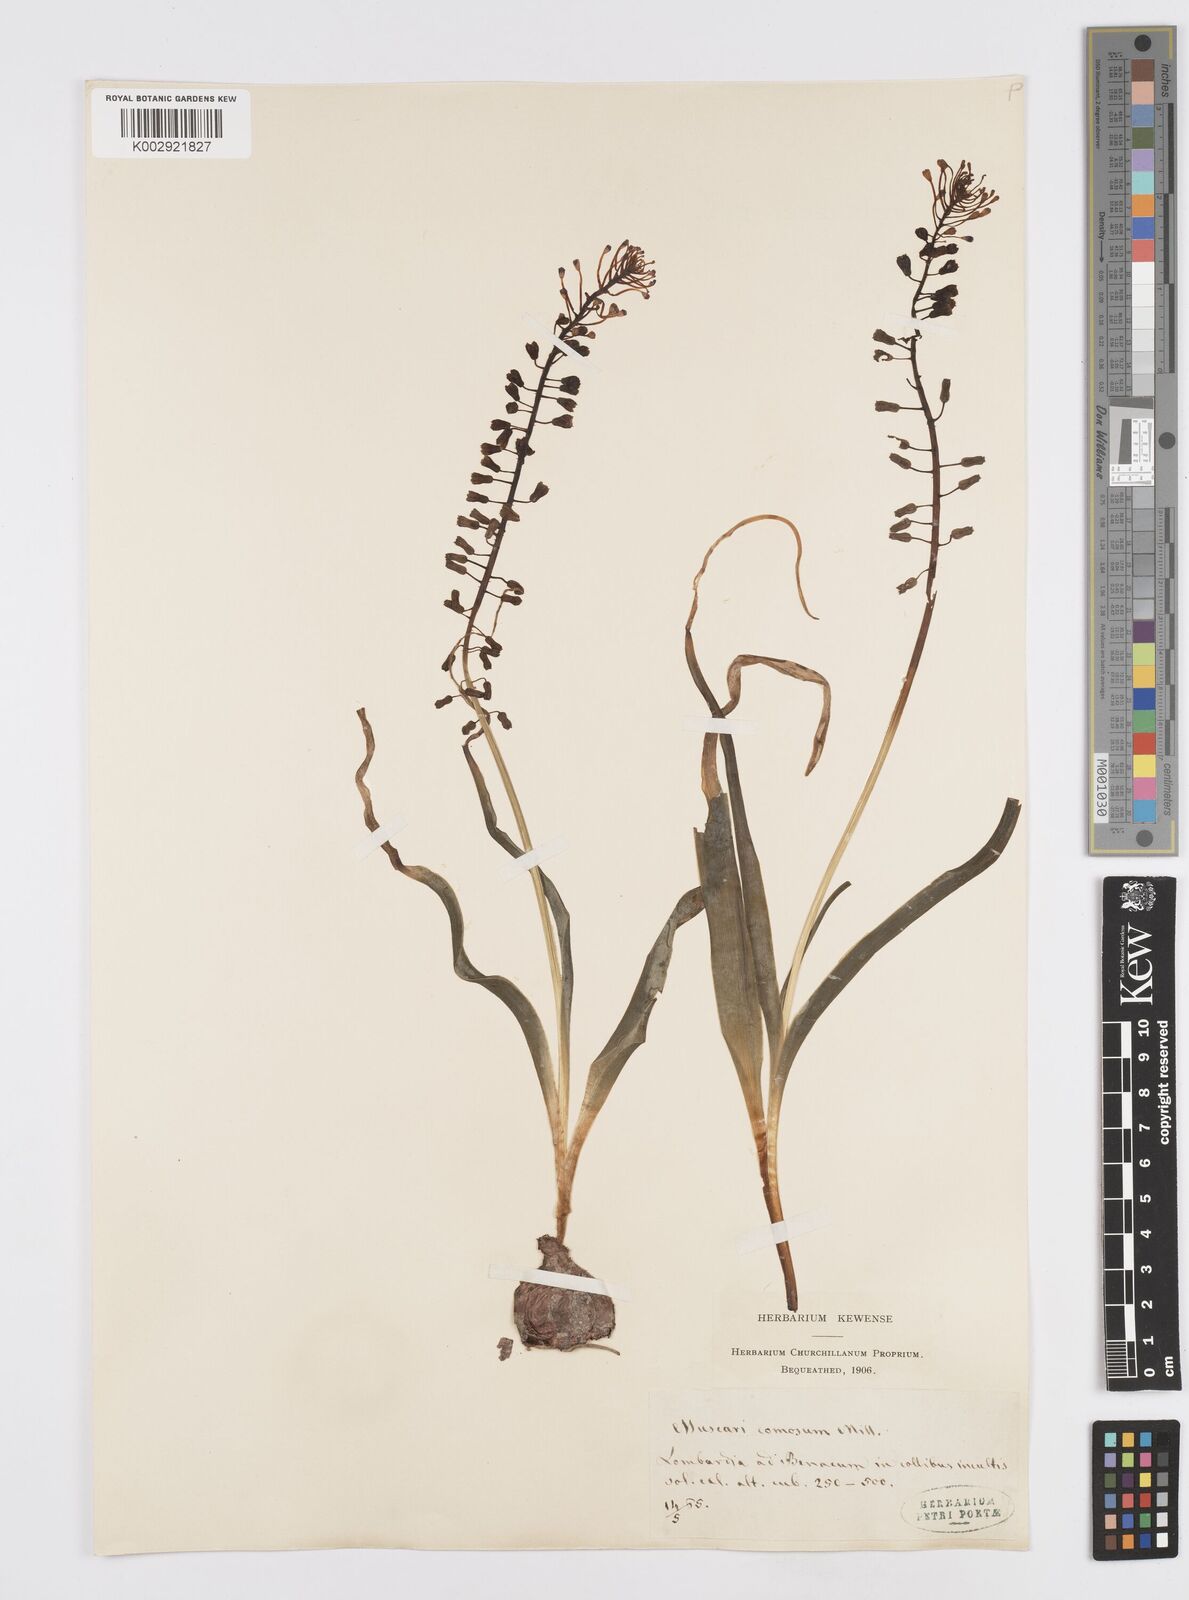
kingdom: Plantae
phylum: Tracheophyta
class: Liliopsida
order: Asparagales
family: Asparagaceae
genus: Muscari
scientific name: Muscari comosum
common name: Tassel hyacinth
